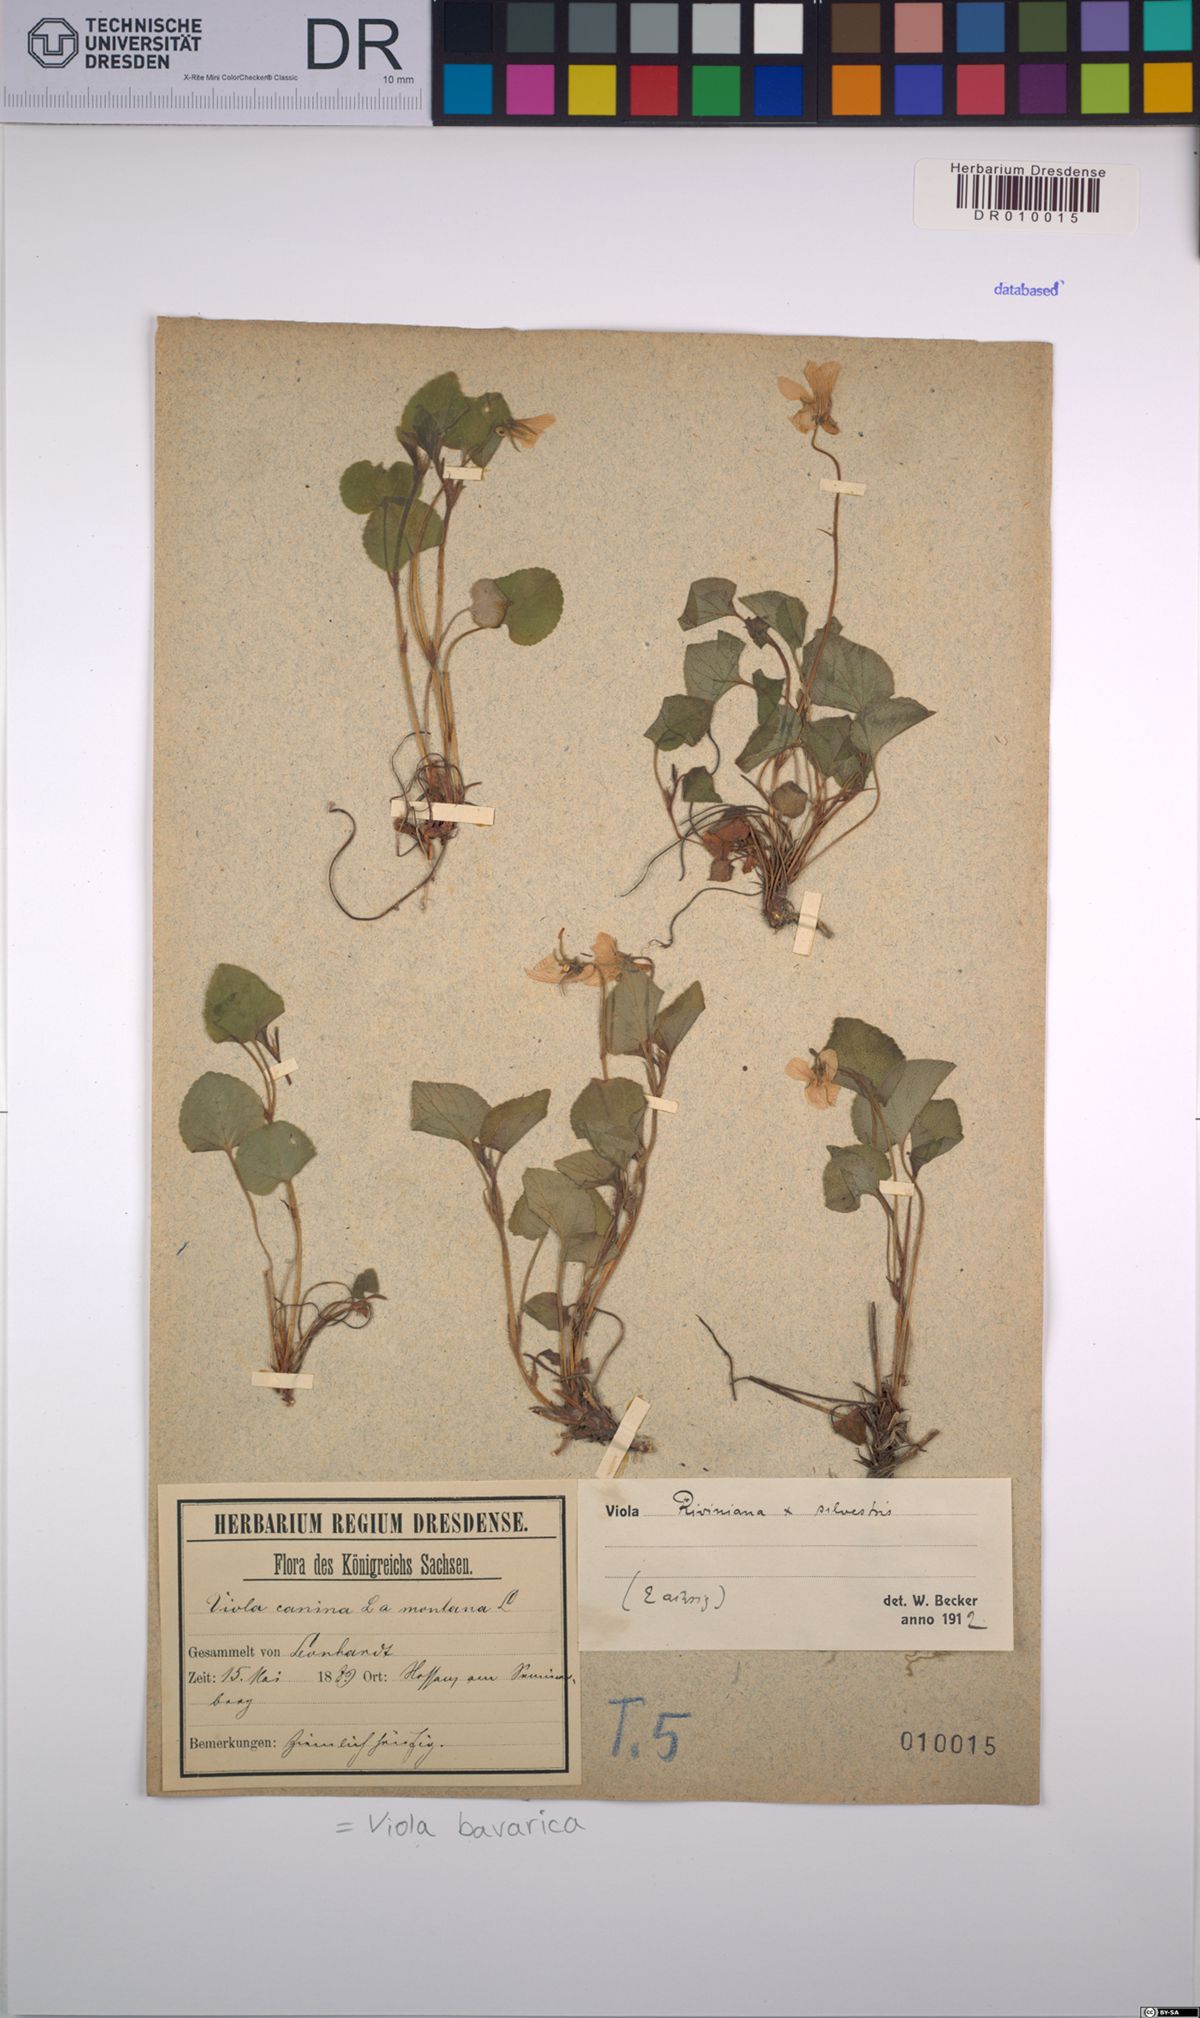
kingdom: Plantae
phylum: Tracheophyta
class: Magnoliopsida
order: Malpighiales
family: Violaceae
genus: Viola
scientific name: Viola bavarica
